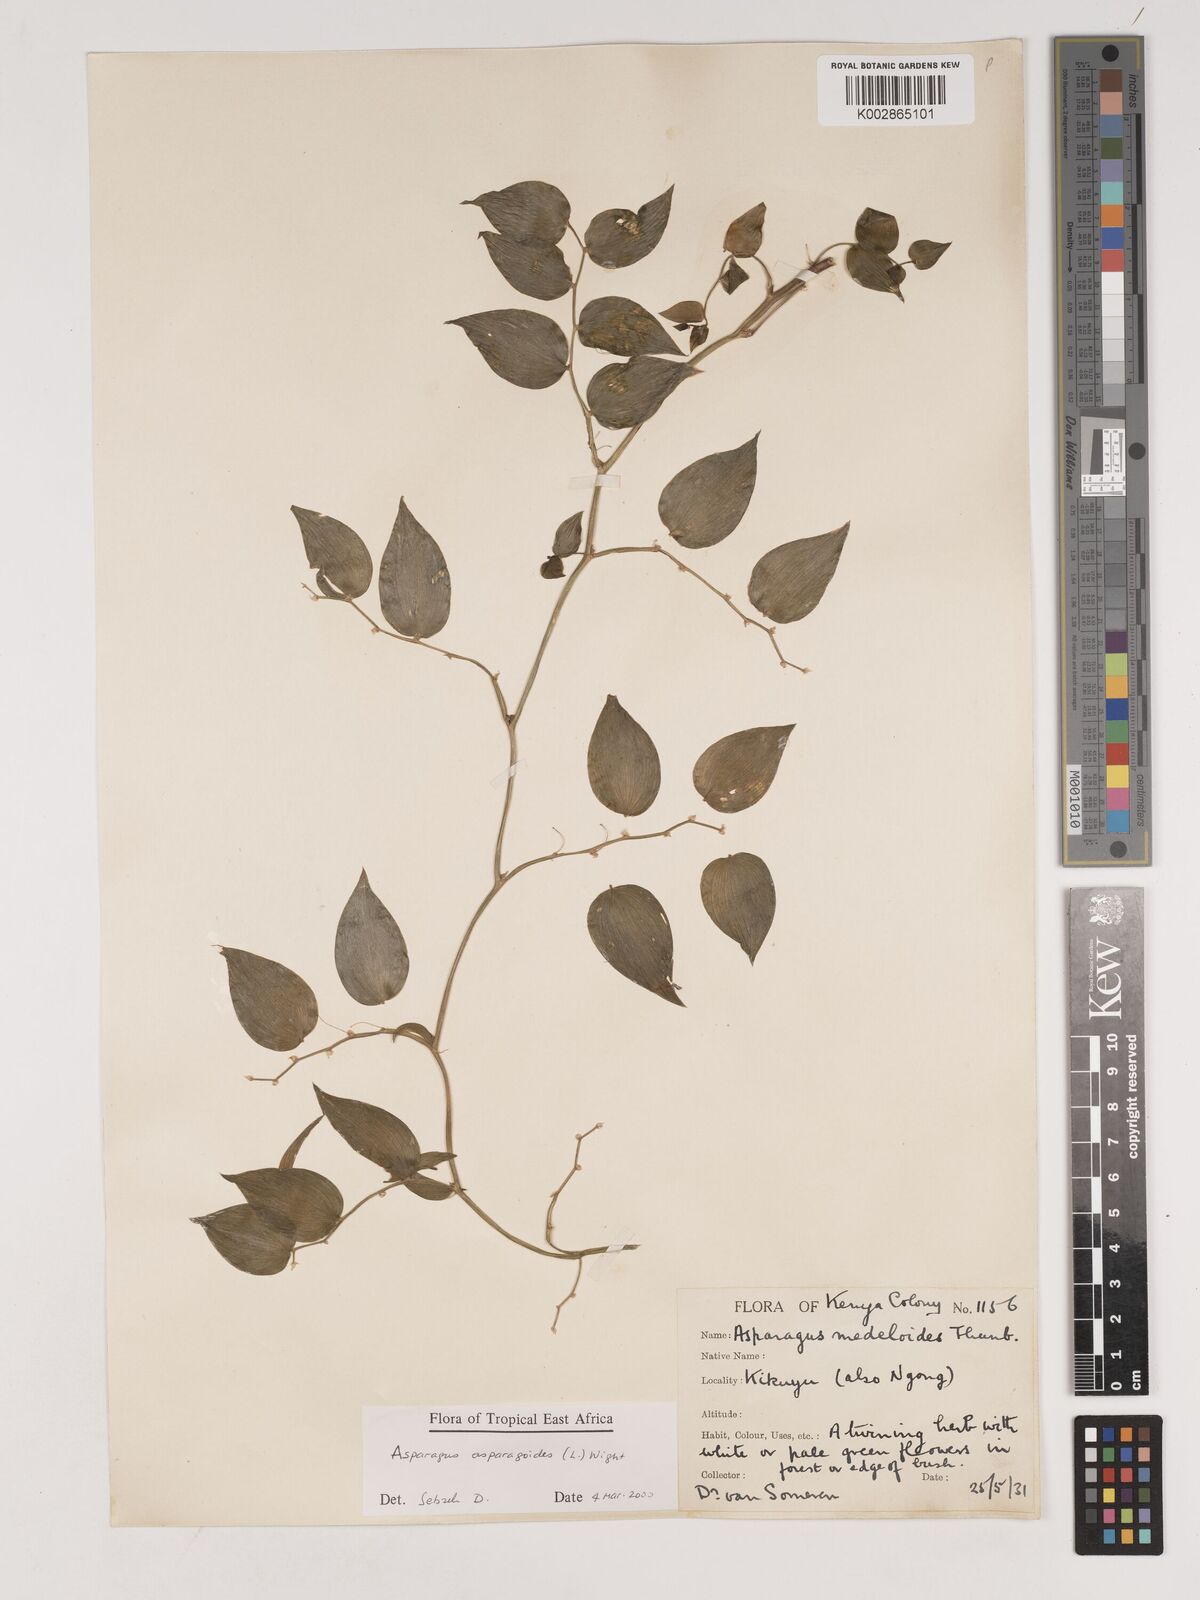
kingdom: Plantae
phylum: Tracheophyta
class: Liliopsida
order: Asparagales
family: Asparagaceae
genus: Asparagus
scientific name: Asparagus asparagoides
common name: African asparagus fern
